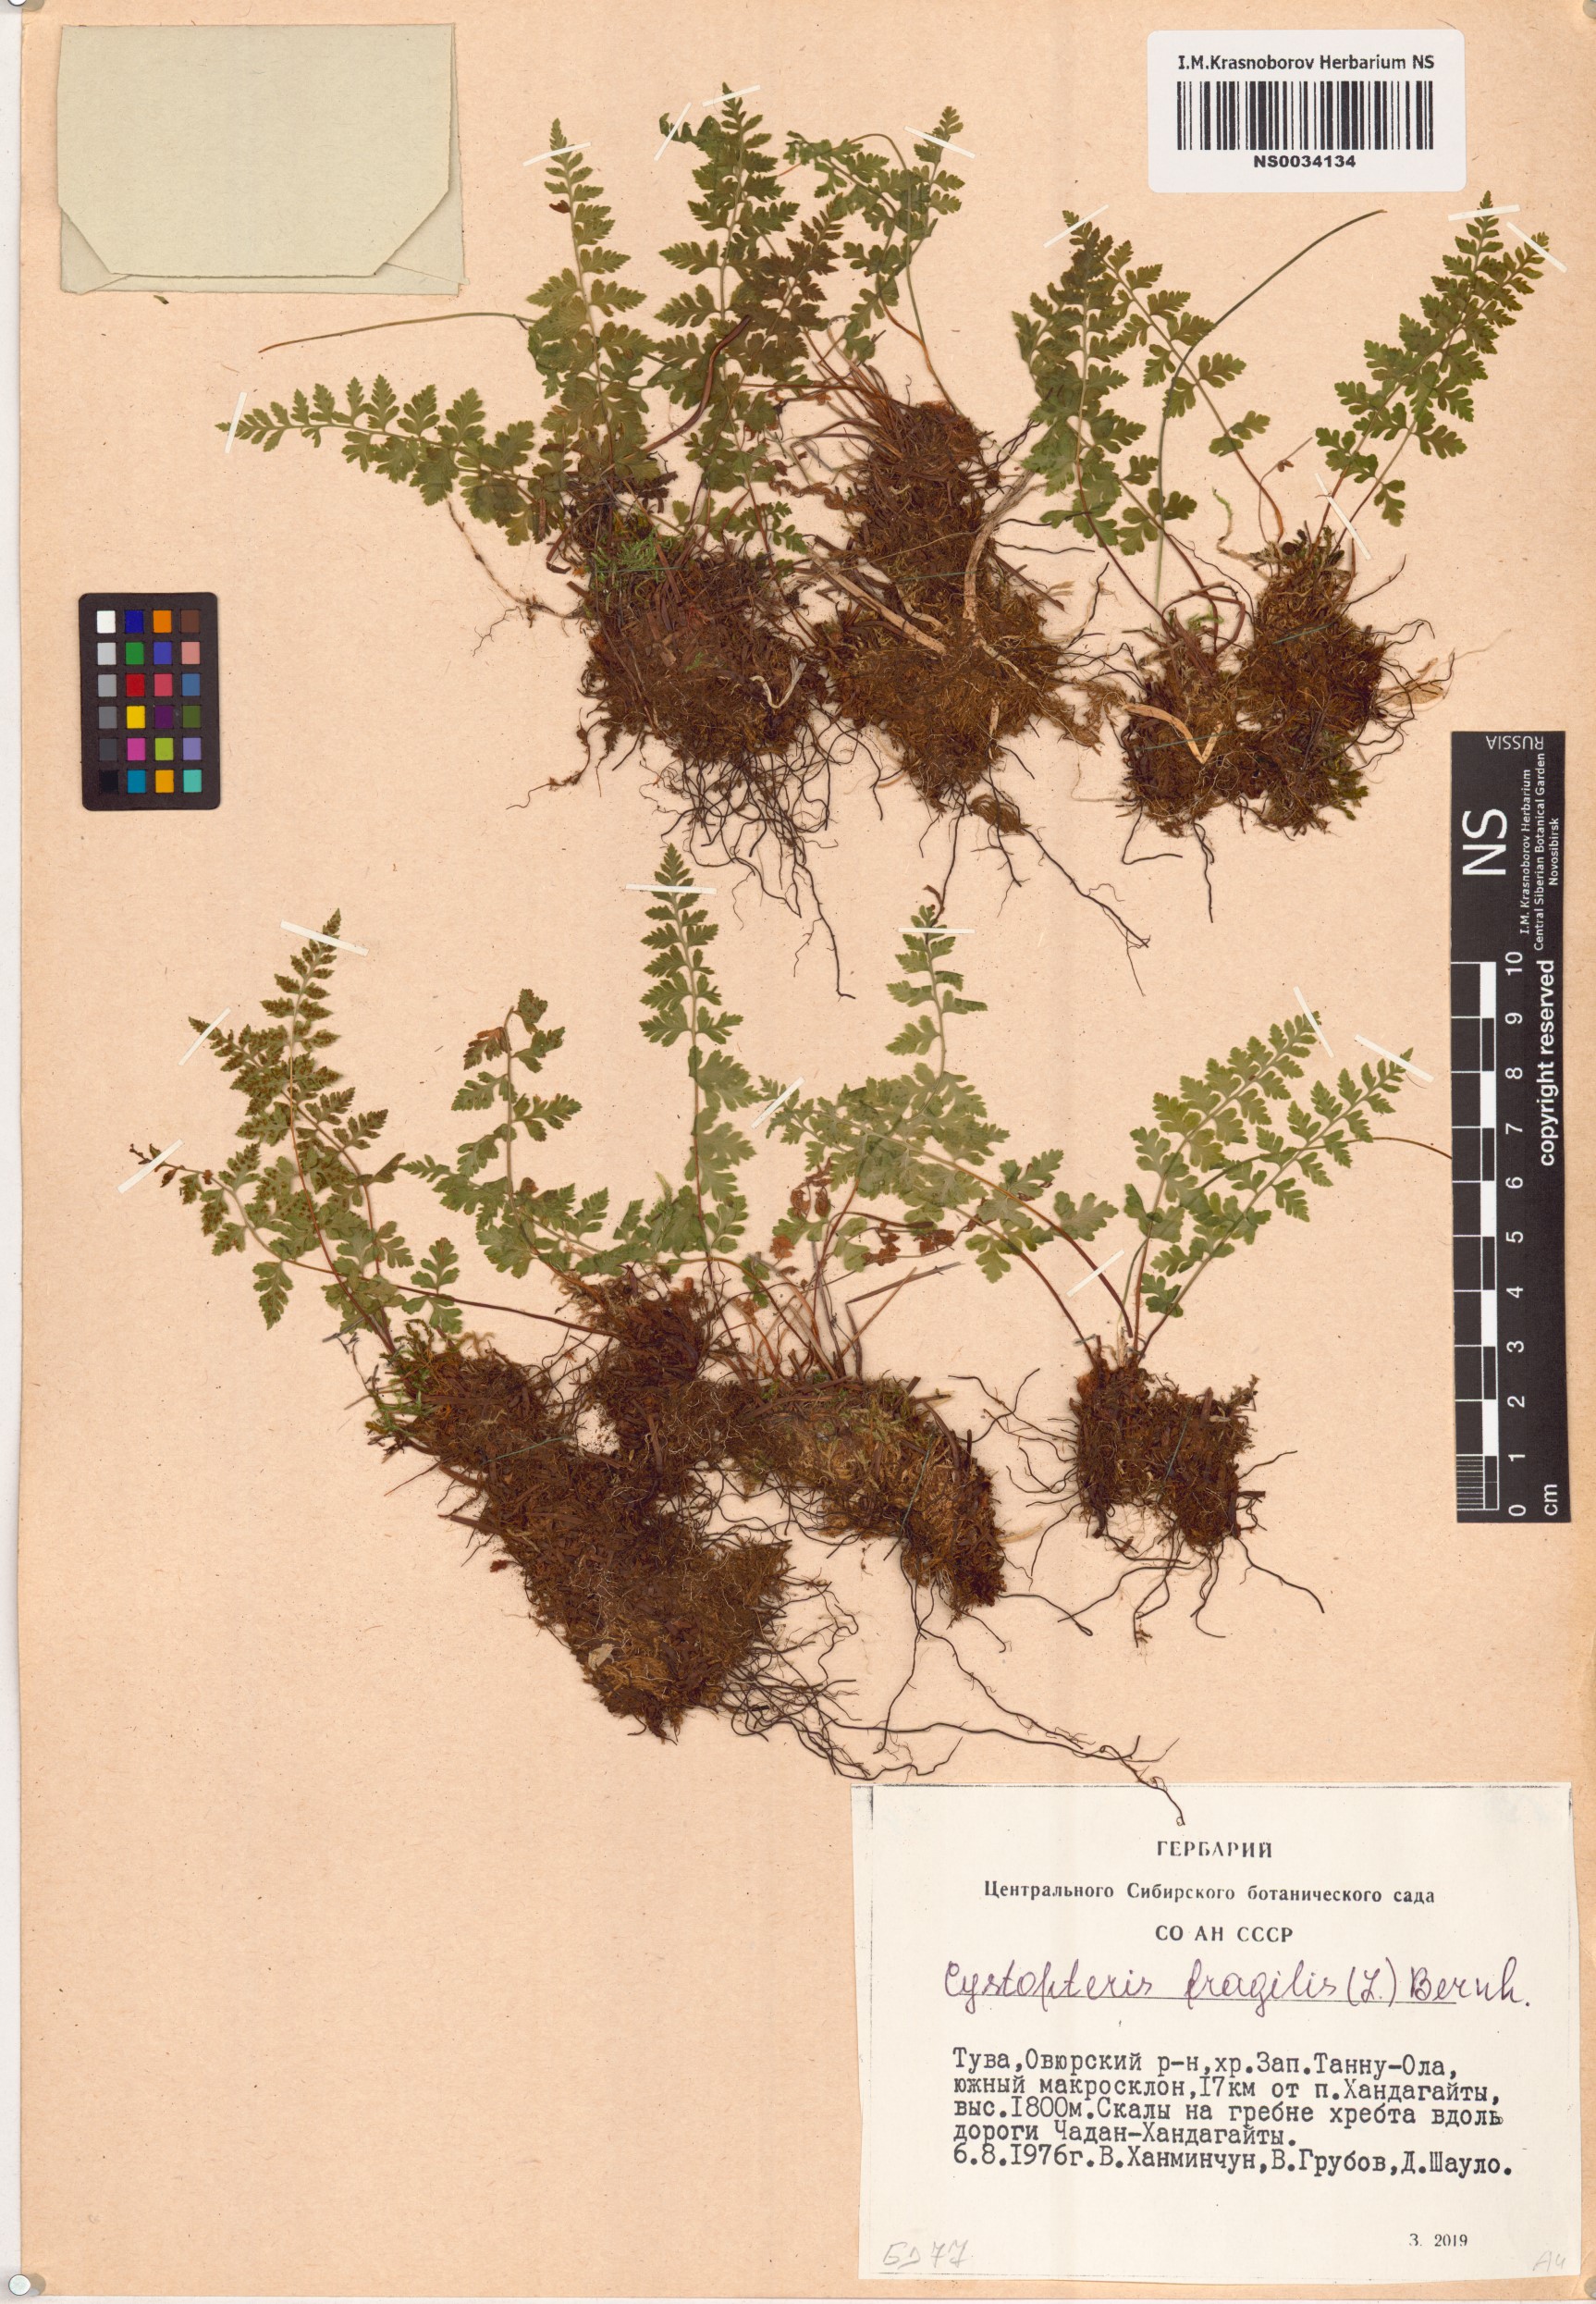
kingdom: Plantae
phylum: Tracheophyta
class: Polypodiopsida
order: Polypodiales
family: Cystopteridaceae
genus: Cystopteris
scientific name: Cystopteris fragilis
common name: Brittle bladder fern
